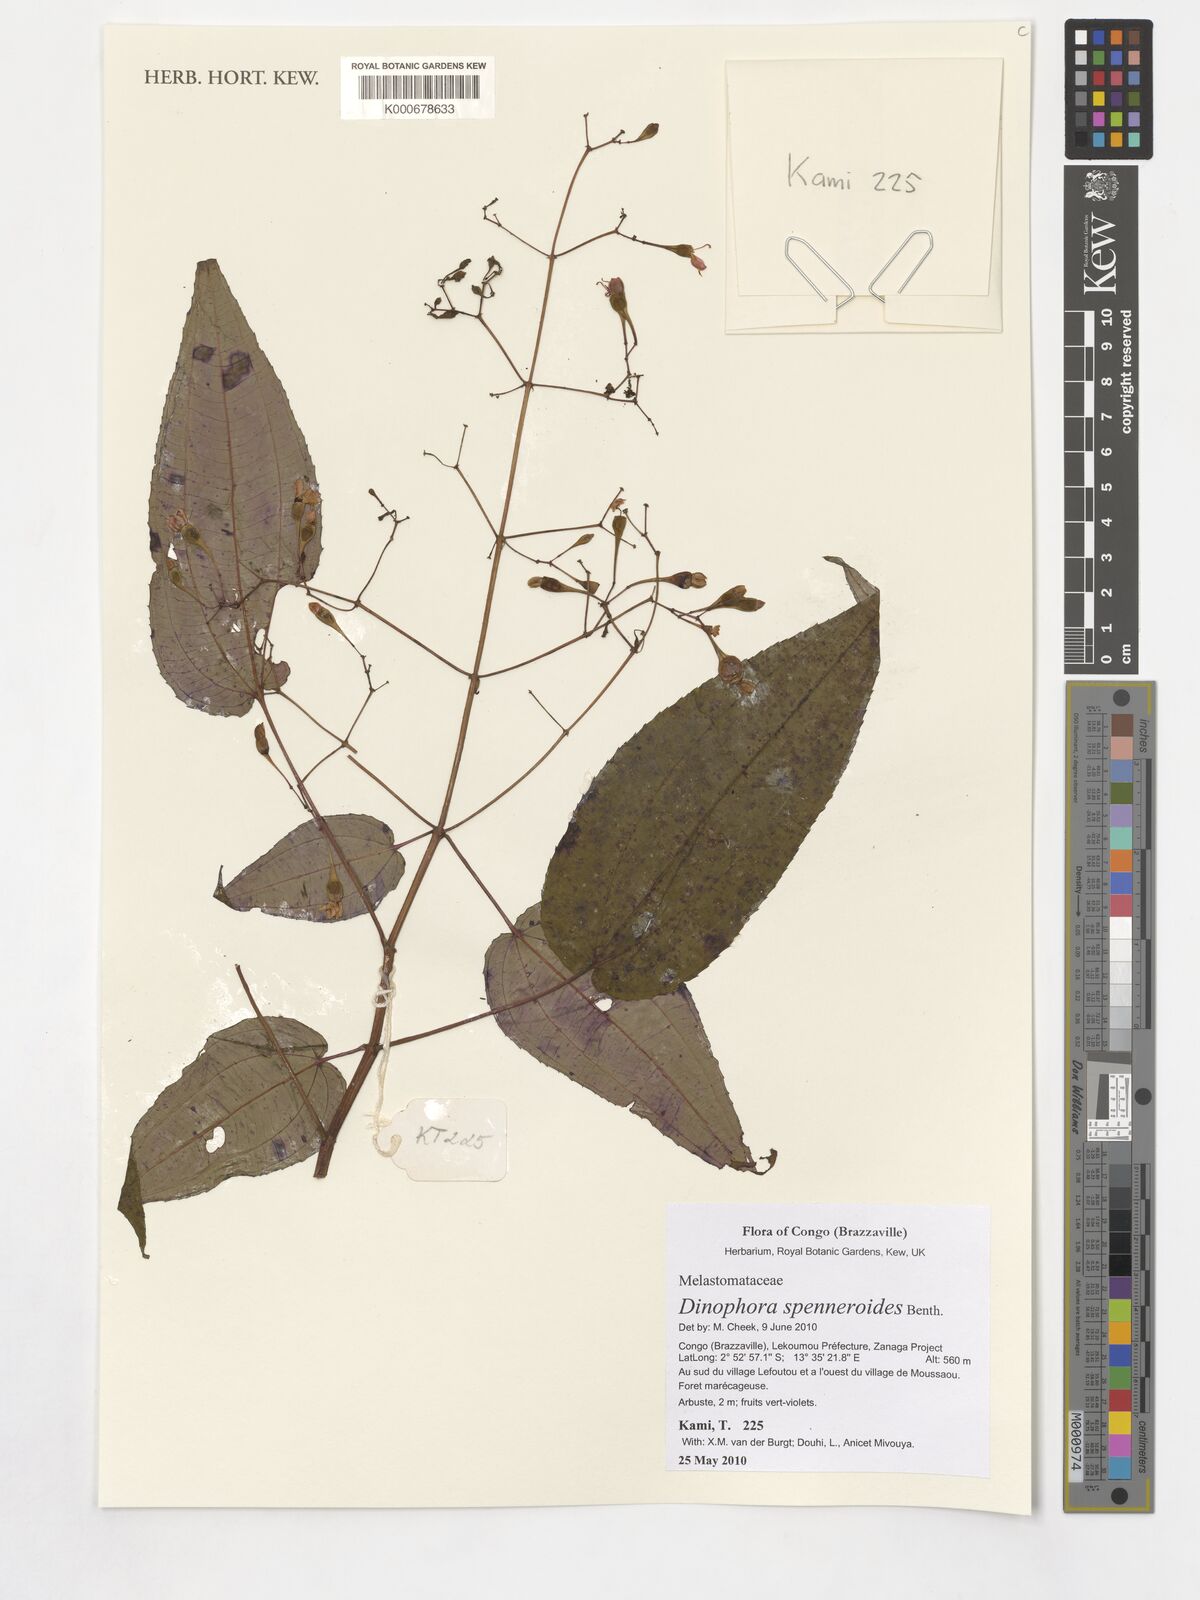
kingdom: Plantae
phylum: Tracheophyta
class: Magnoliopsida
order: Myrtales
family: Melastomataceae
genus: Dinophora
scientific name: Dinophora spenneroides
